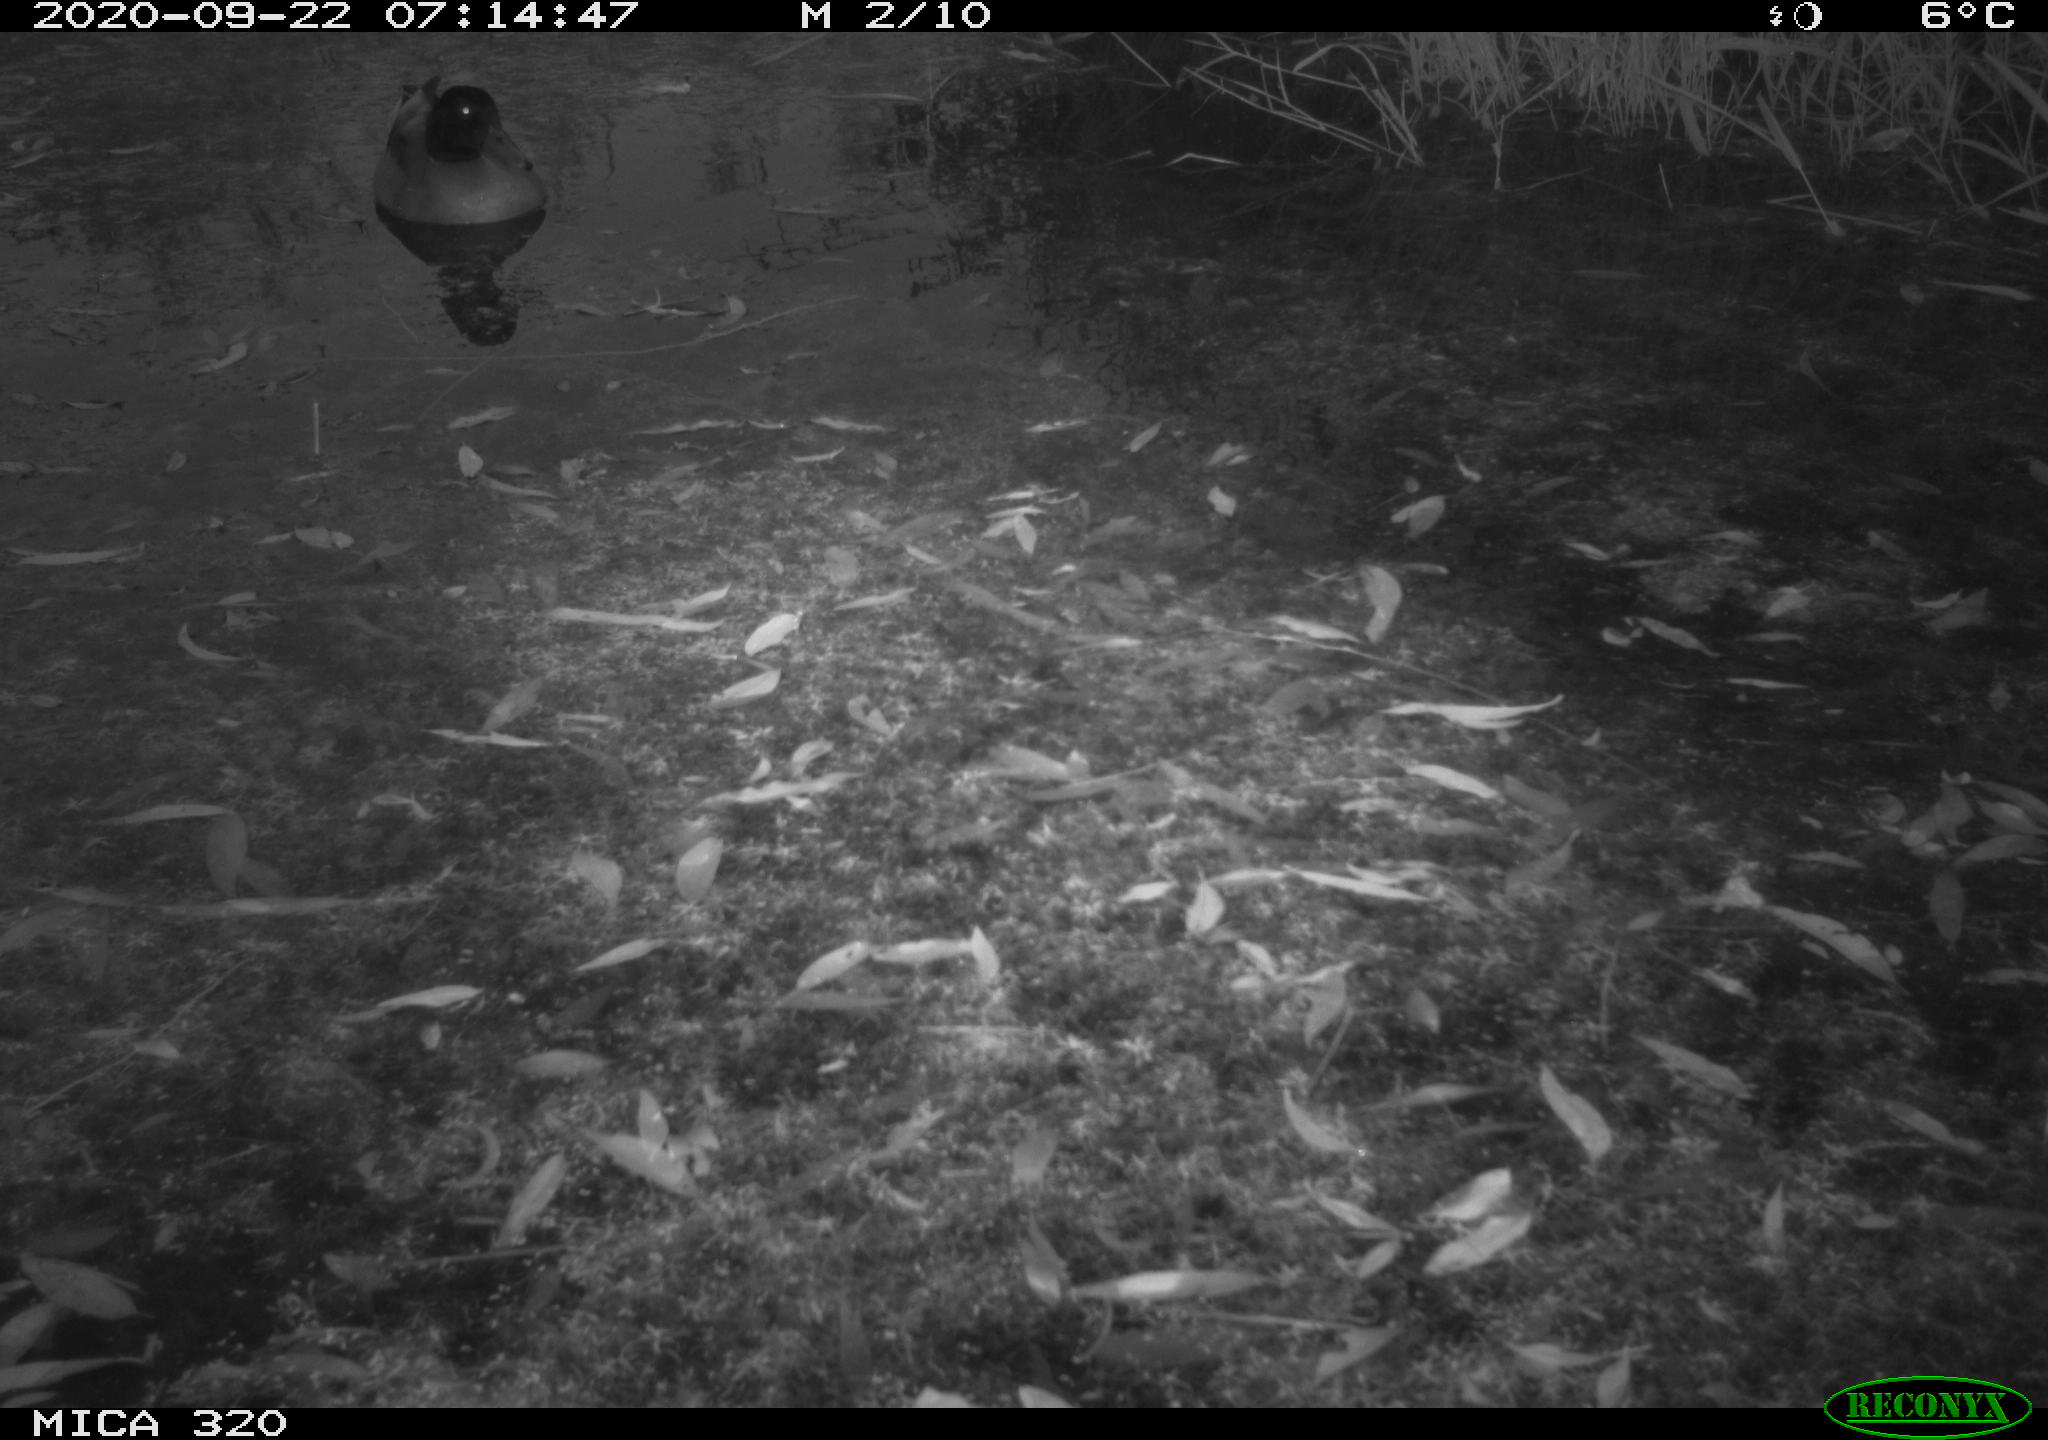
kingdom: Animalia
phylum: Chordata
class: Aves
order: Gruiformes
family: Rallidae
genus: Gallinula
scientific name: Gallinula chloropus
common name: Common moorhen
